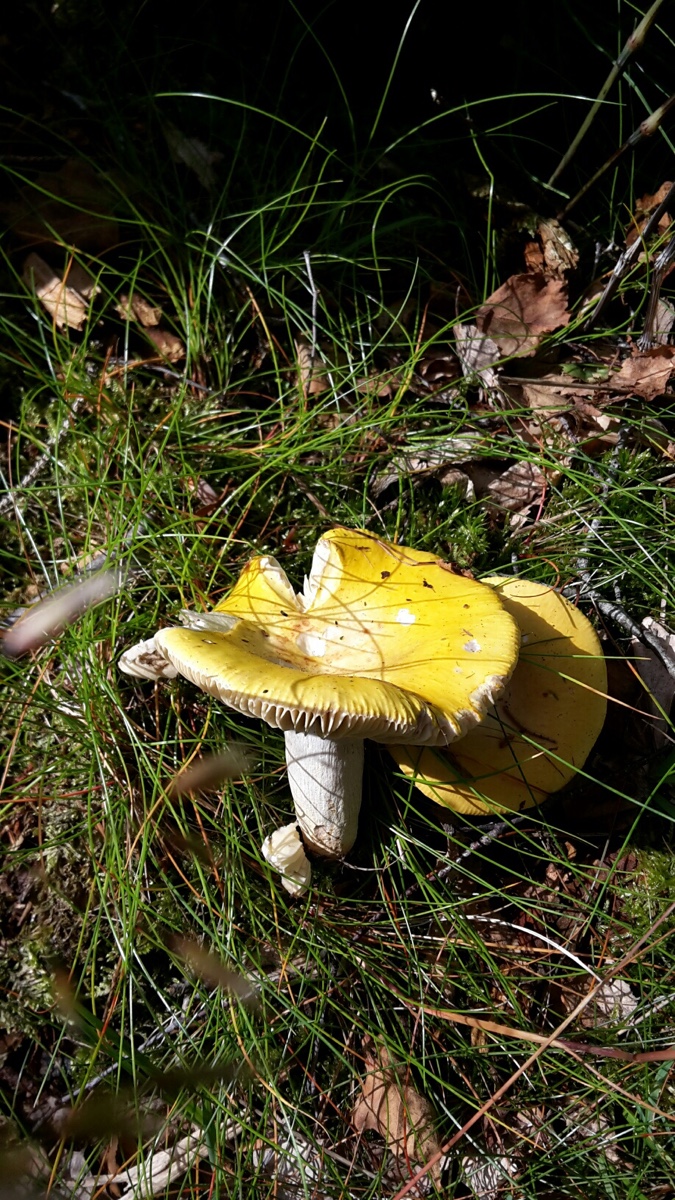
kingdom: Fungi
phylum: Basidiomycota
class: Agaricomycetes
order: Russulales
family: Russulaceae
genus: Russula
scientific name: Russula claroflava
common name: birke-skørhat
